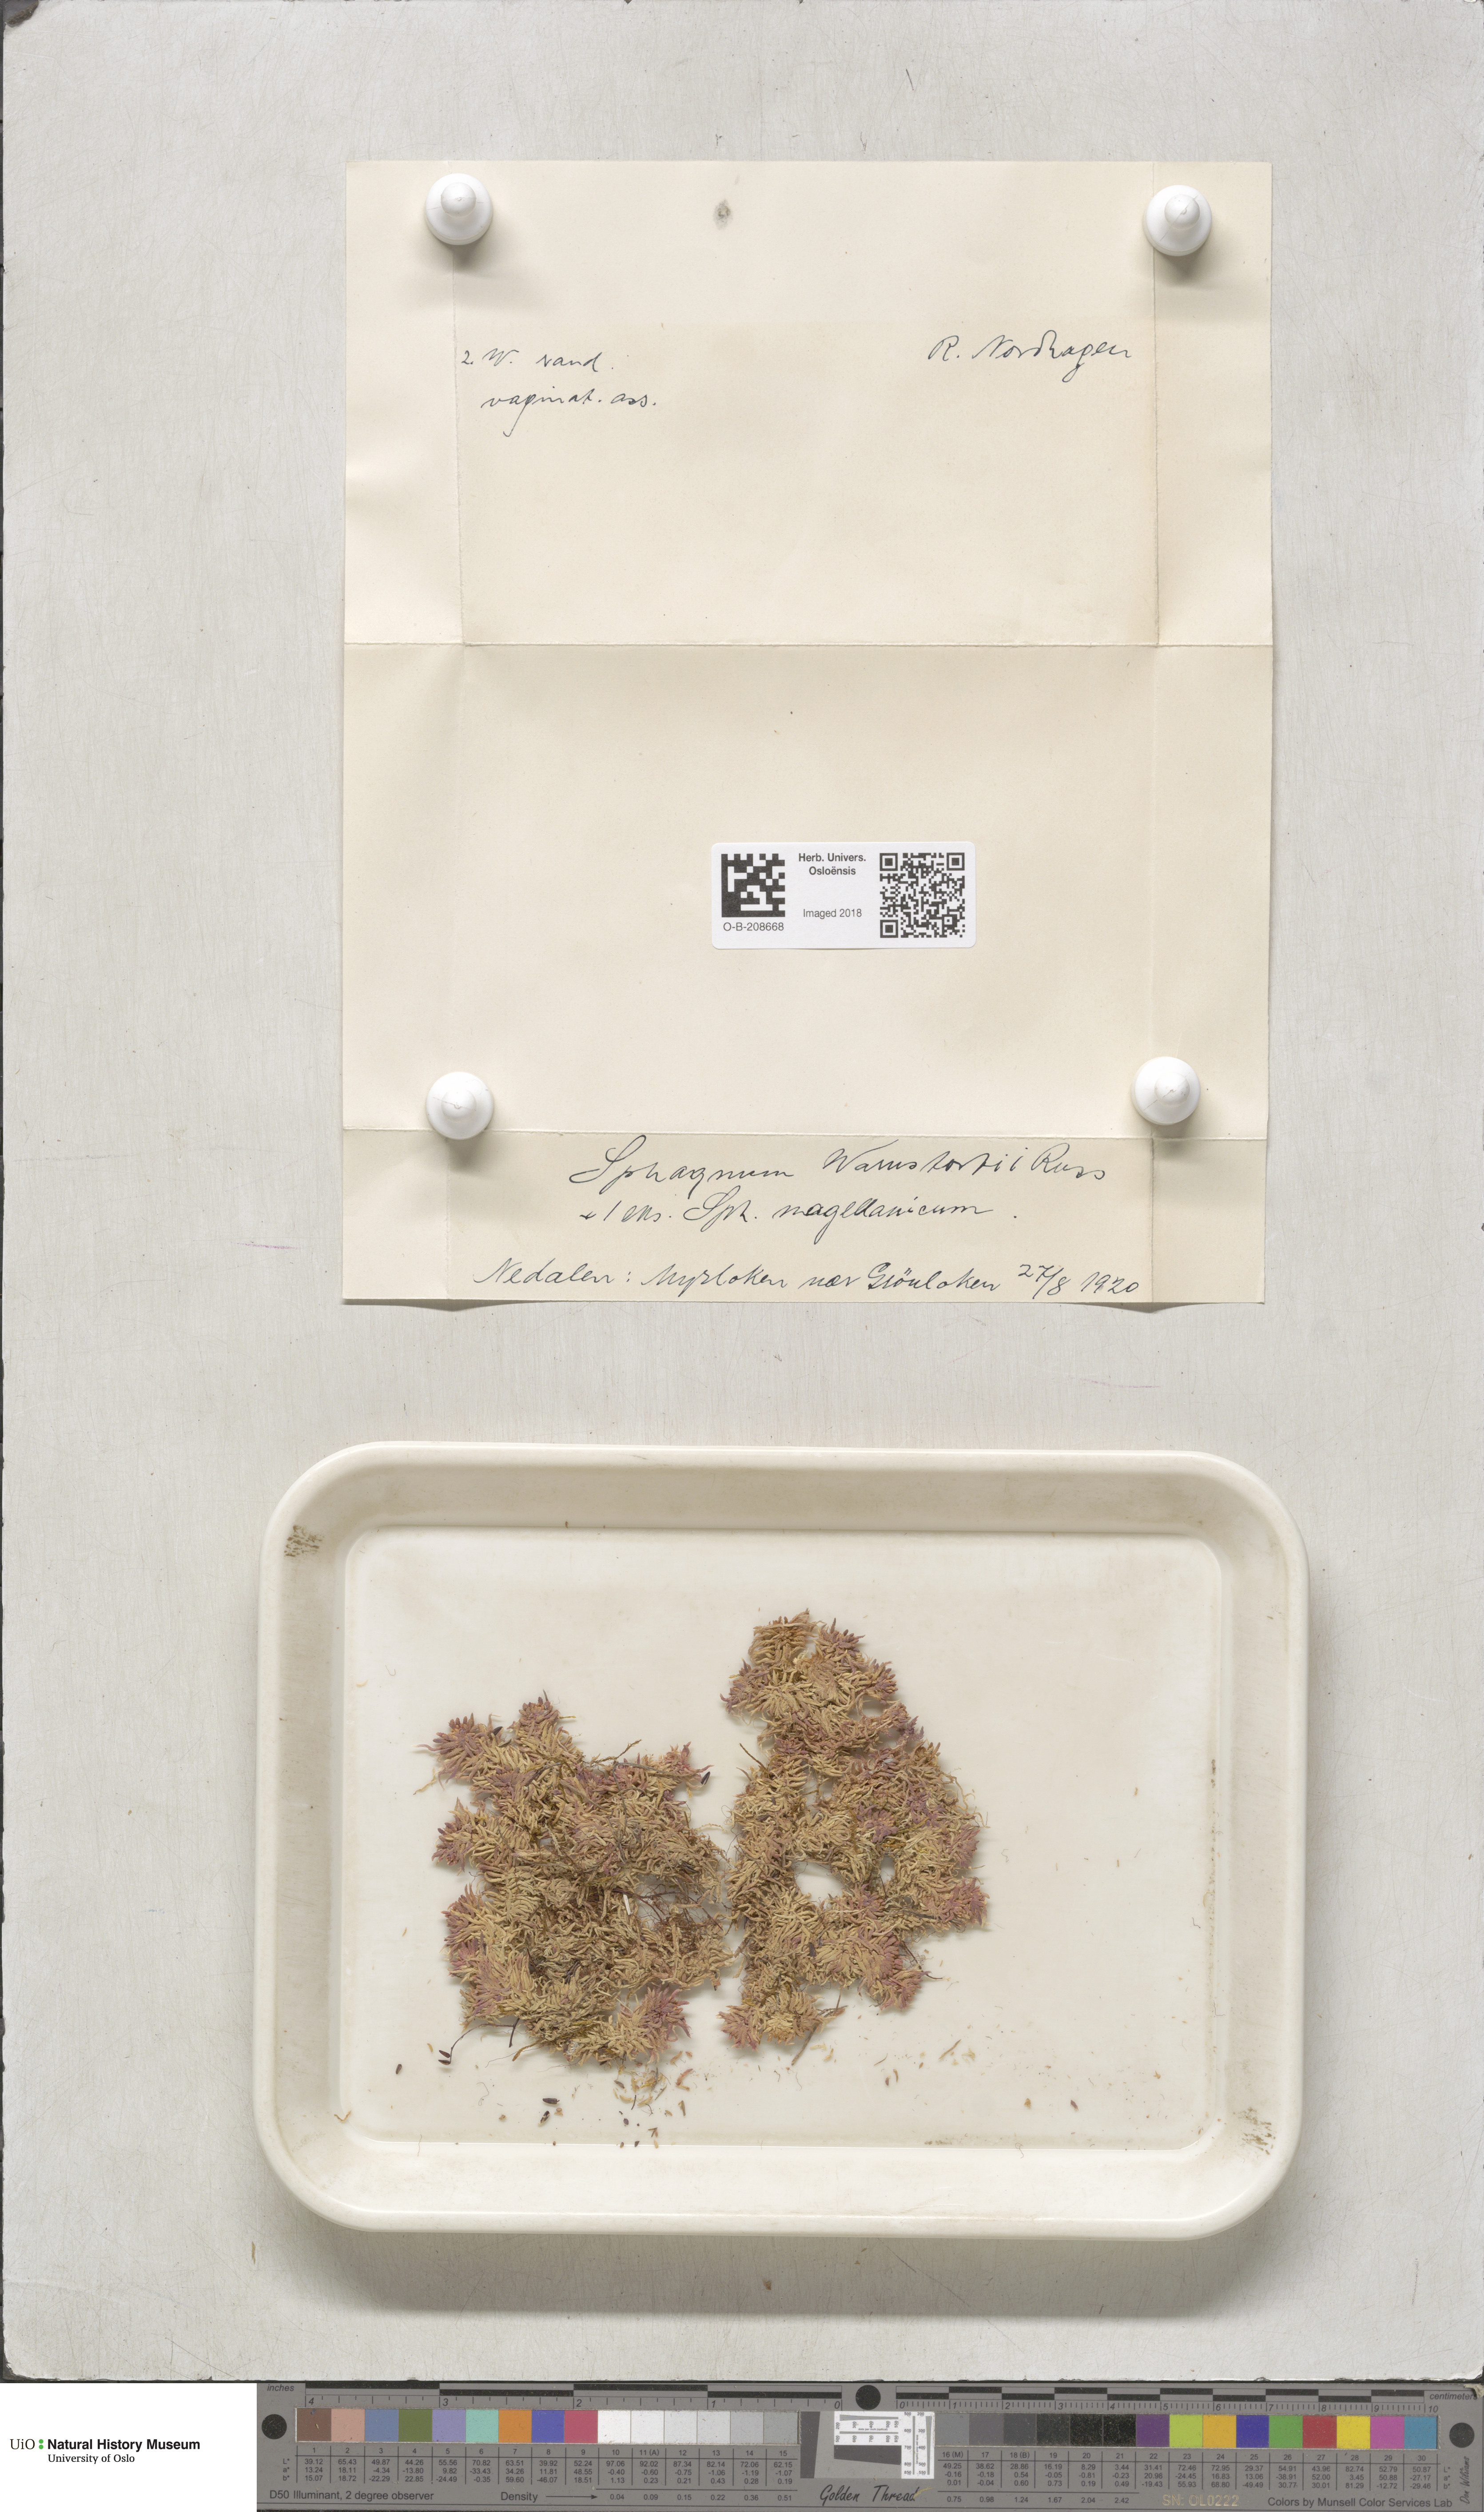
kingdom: Plantae
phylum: Bryophyta
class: Sphagnopsida
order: Sphagnales
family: Sphagnaceae
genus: Sphagnum
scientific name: Sphagnum warnstorfii
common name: Warnstorf's peat moss
